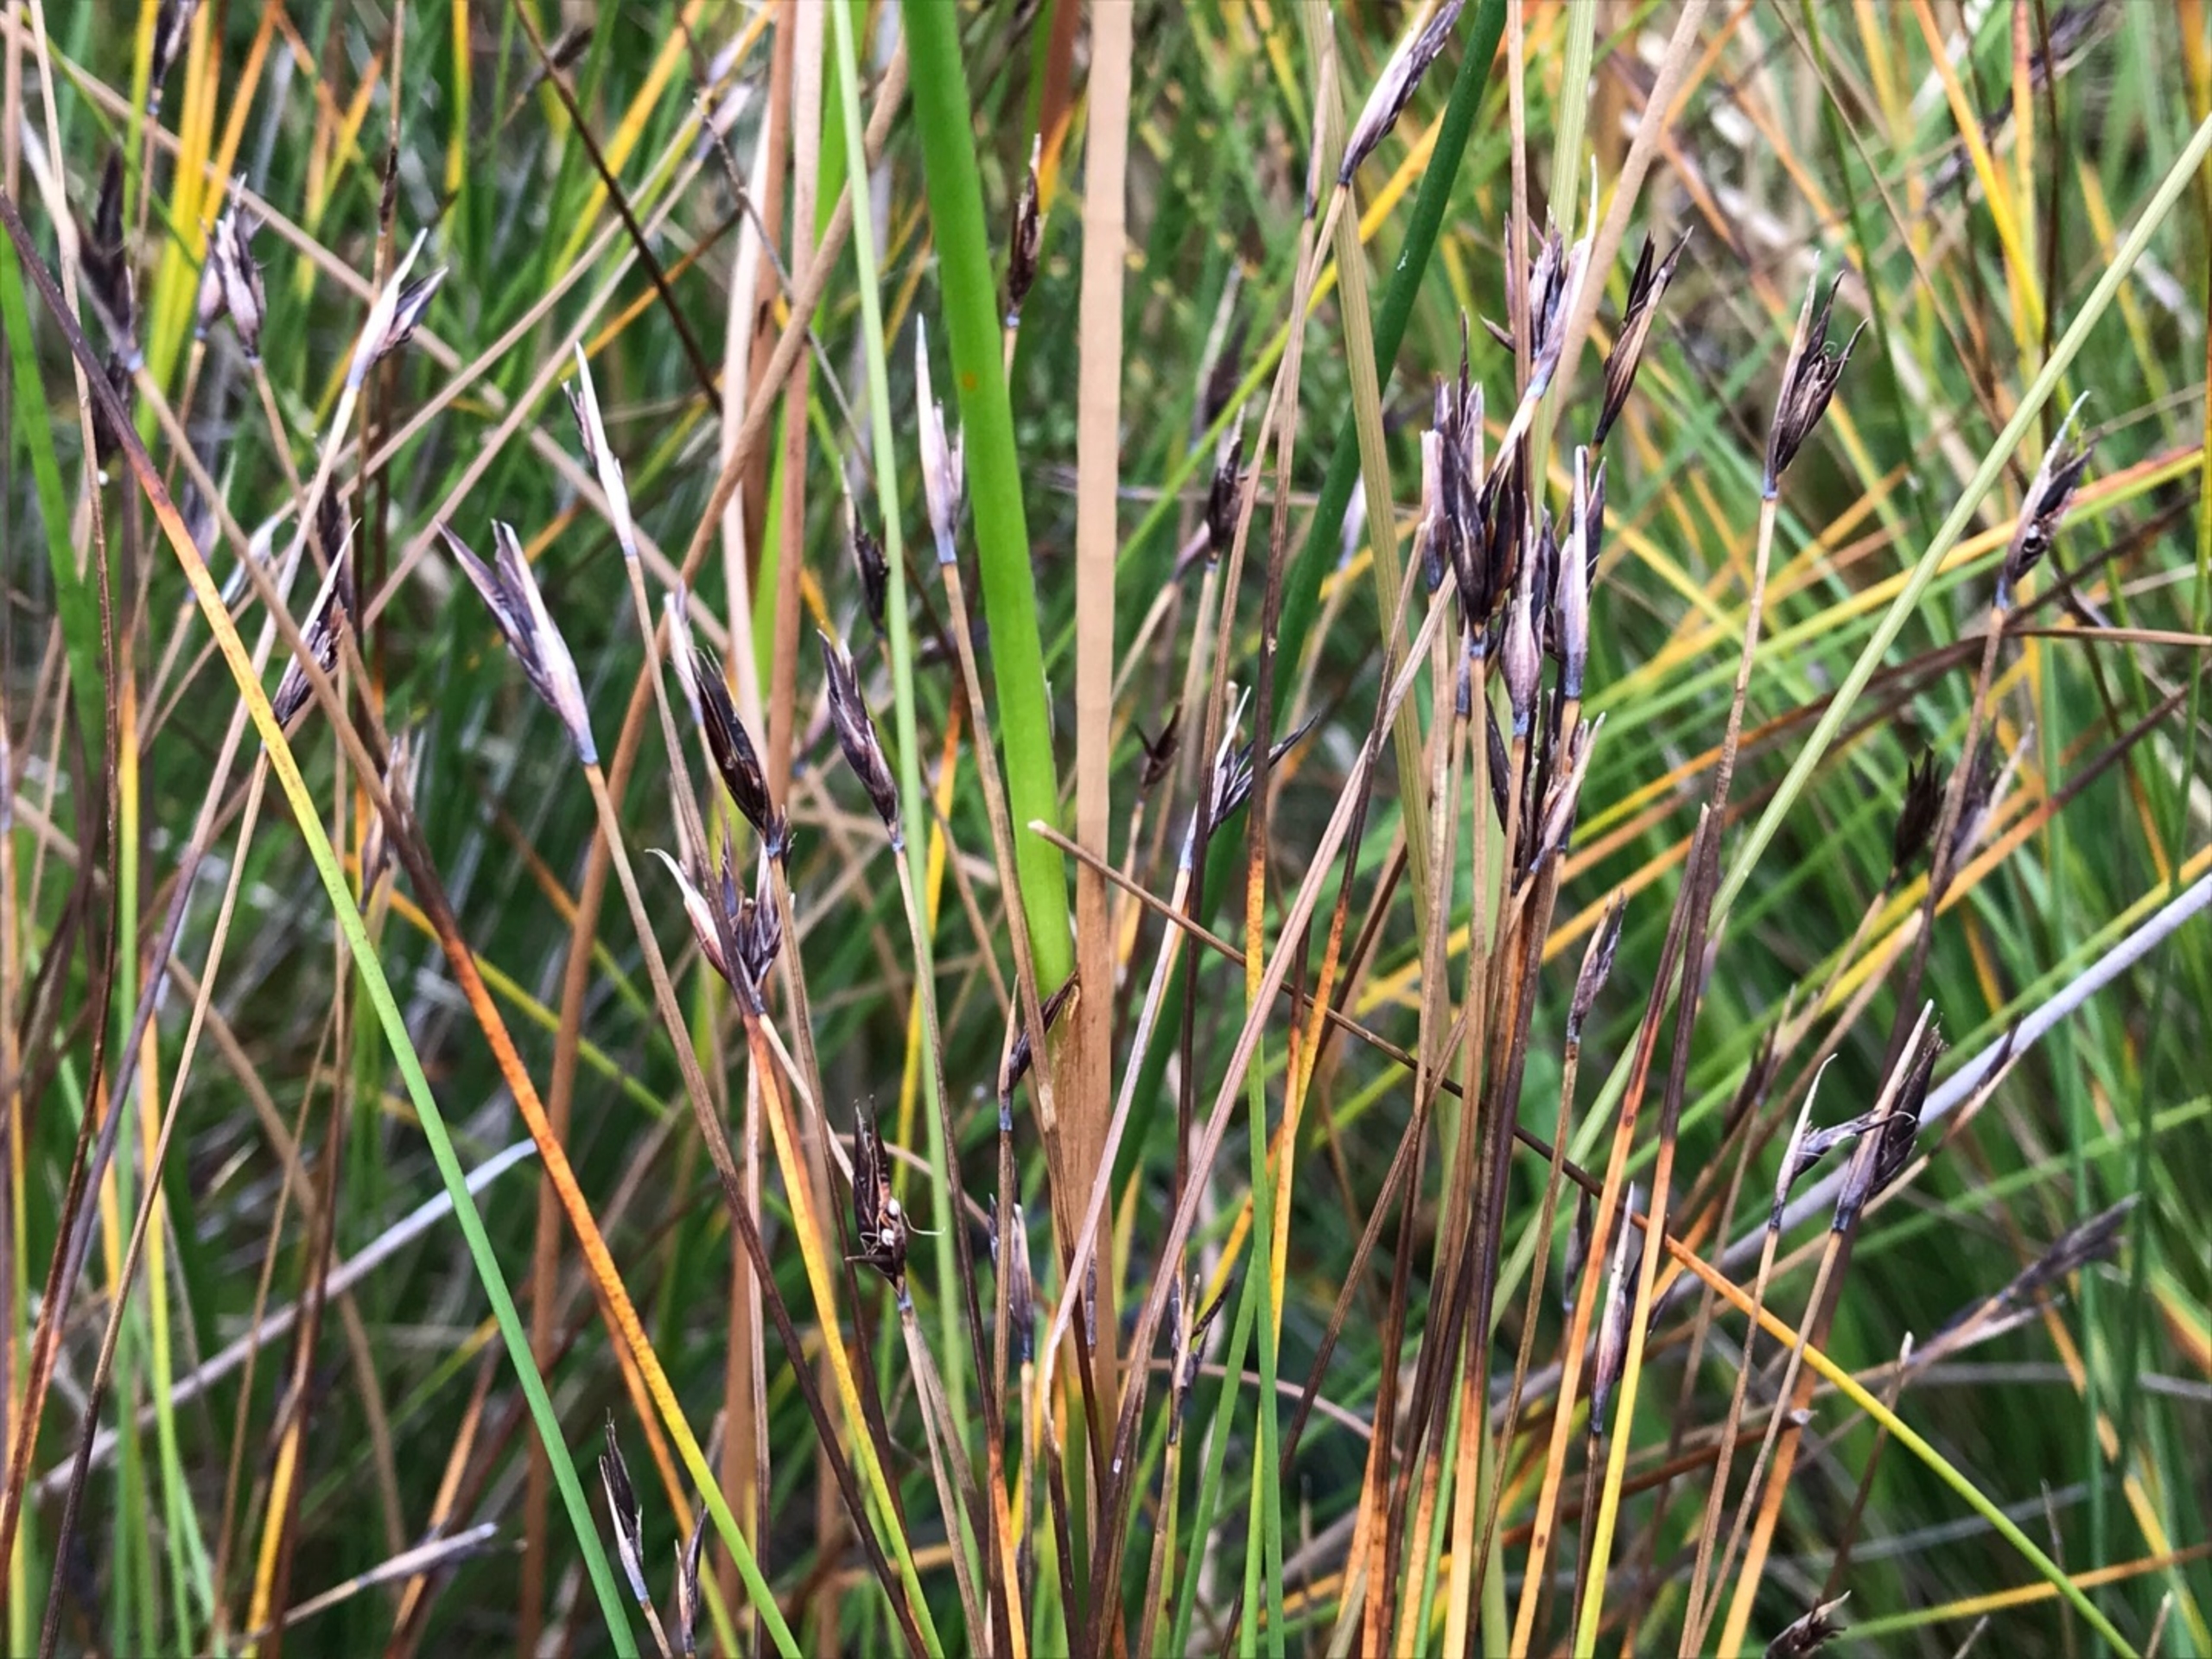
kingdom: Plantae
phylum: Tracheophyta
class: Liliopsida
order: Poales
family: Cyperaceae
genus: Schoenus
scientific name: Schoenus ferrugineus
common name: Rust-skæne
